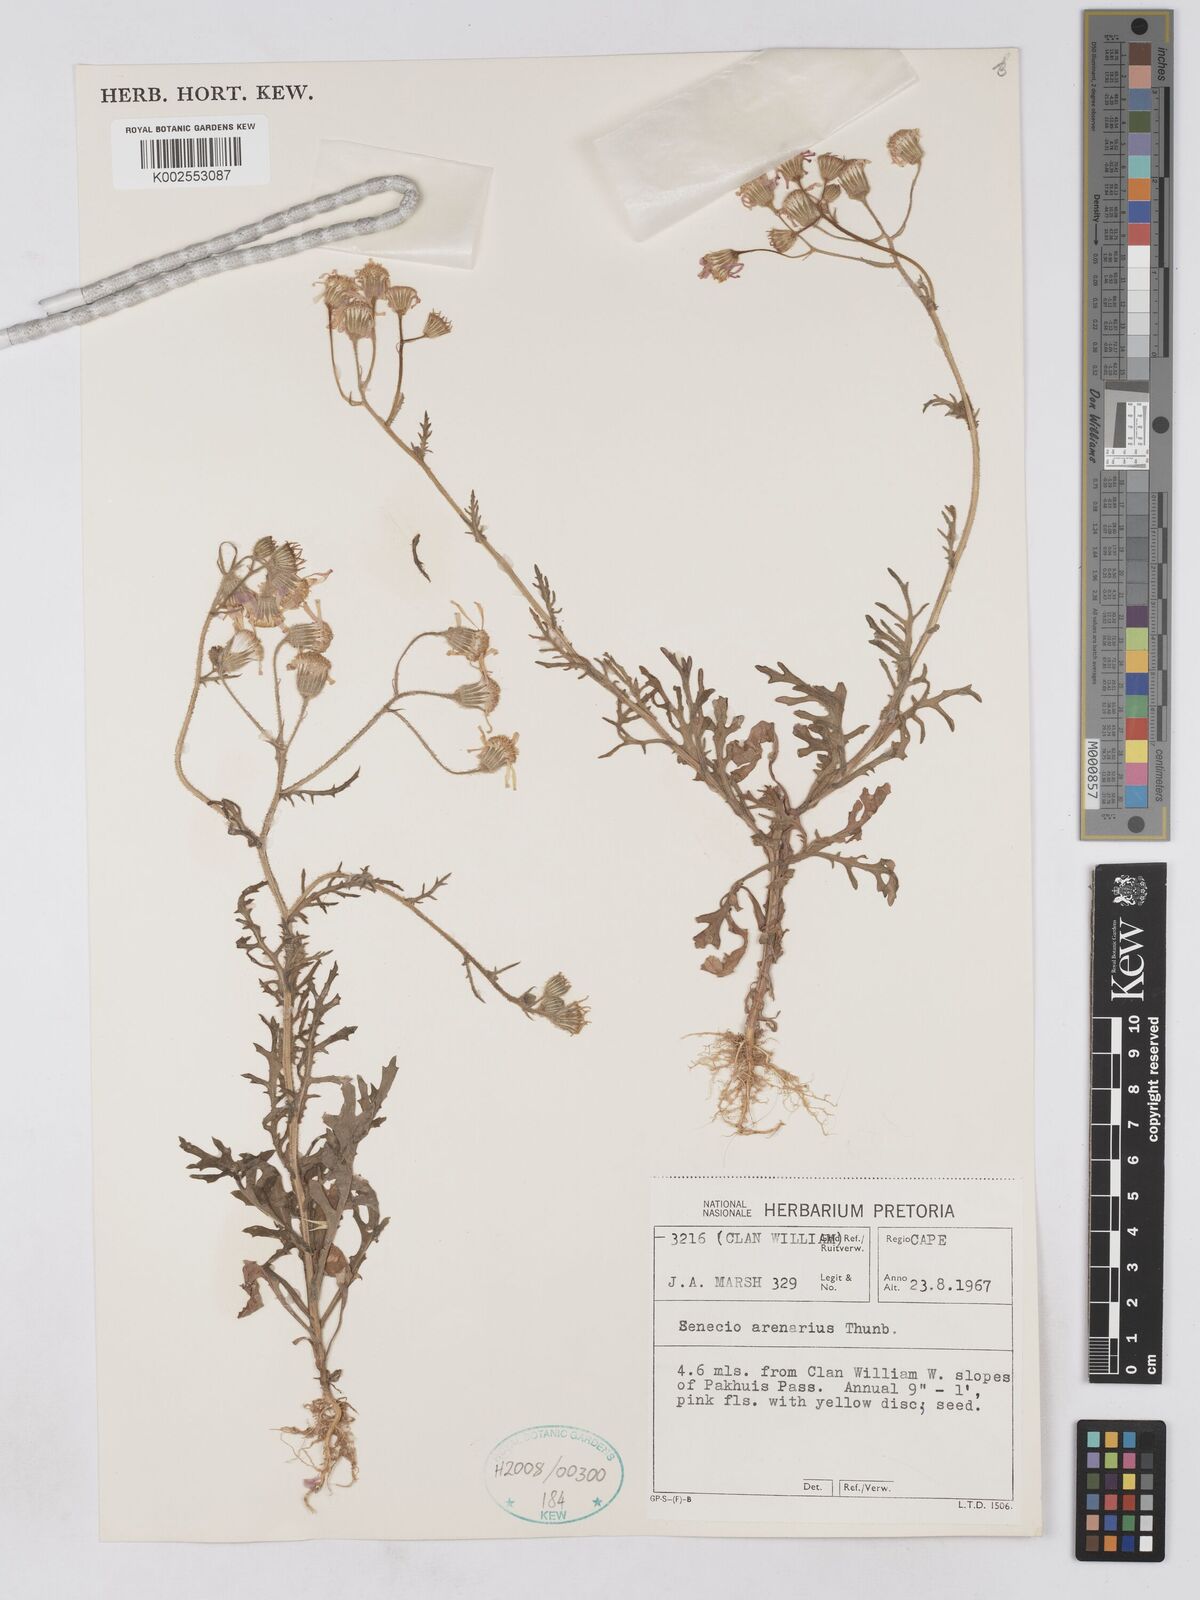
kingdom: Plantae
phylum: Tracheophyta
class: Magnoliopsida
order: Asterales
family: Asteraceae
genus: Senecio
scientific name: Senecio arenarius
